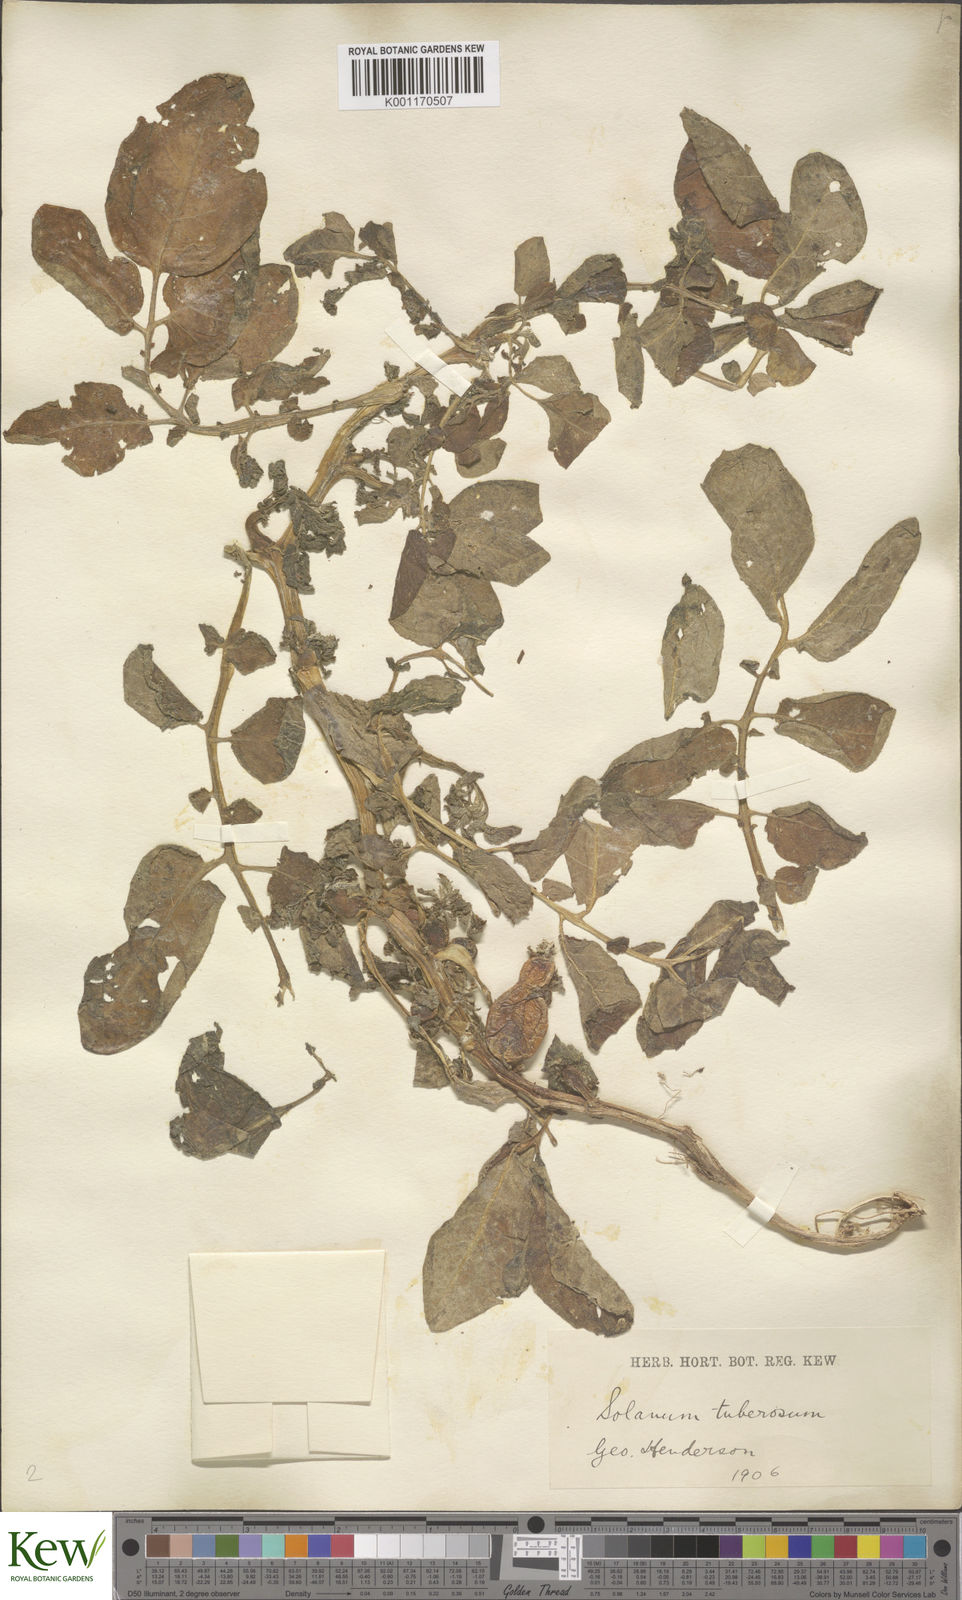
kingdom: Plantae
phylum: Tracheophyta
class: Magnoliopsida
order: Solanales
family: Solanaceae
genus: Solanum
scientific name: Solanum tuberosum
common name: Potato
